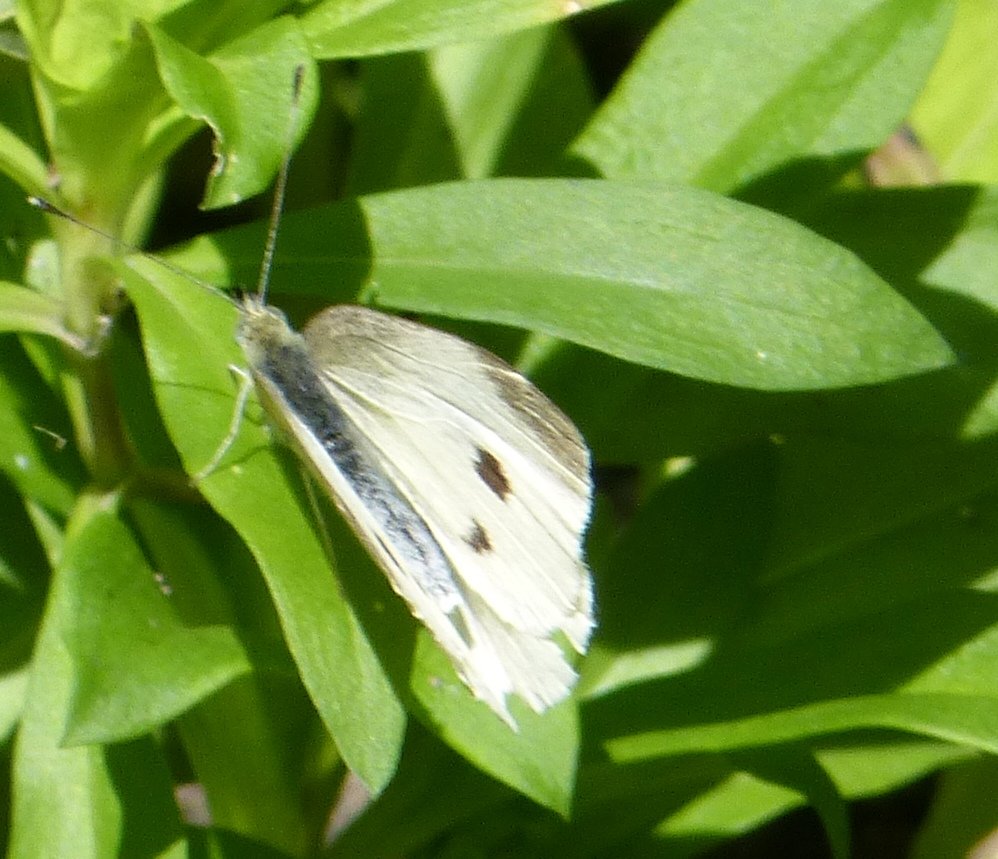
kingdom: Animalia
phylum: Arthropoda
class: Insecta
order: Lepidoptera
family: Pieridae
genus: Pieris
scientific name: Pieris rapae
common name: Cabbage White
